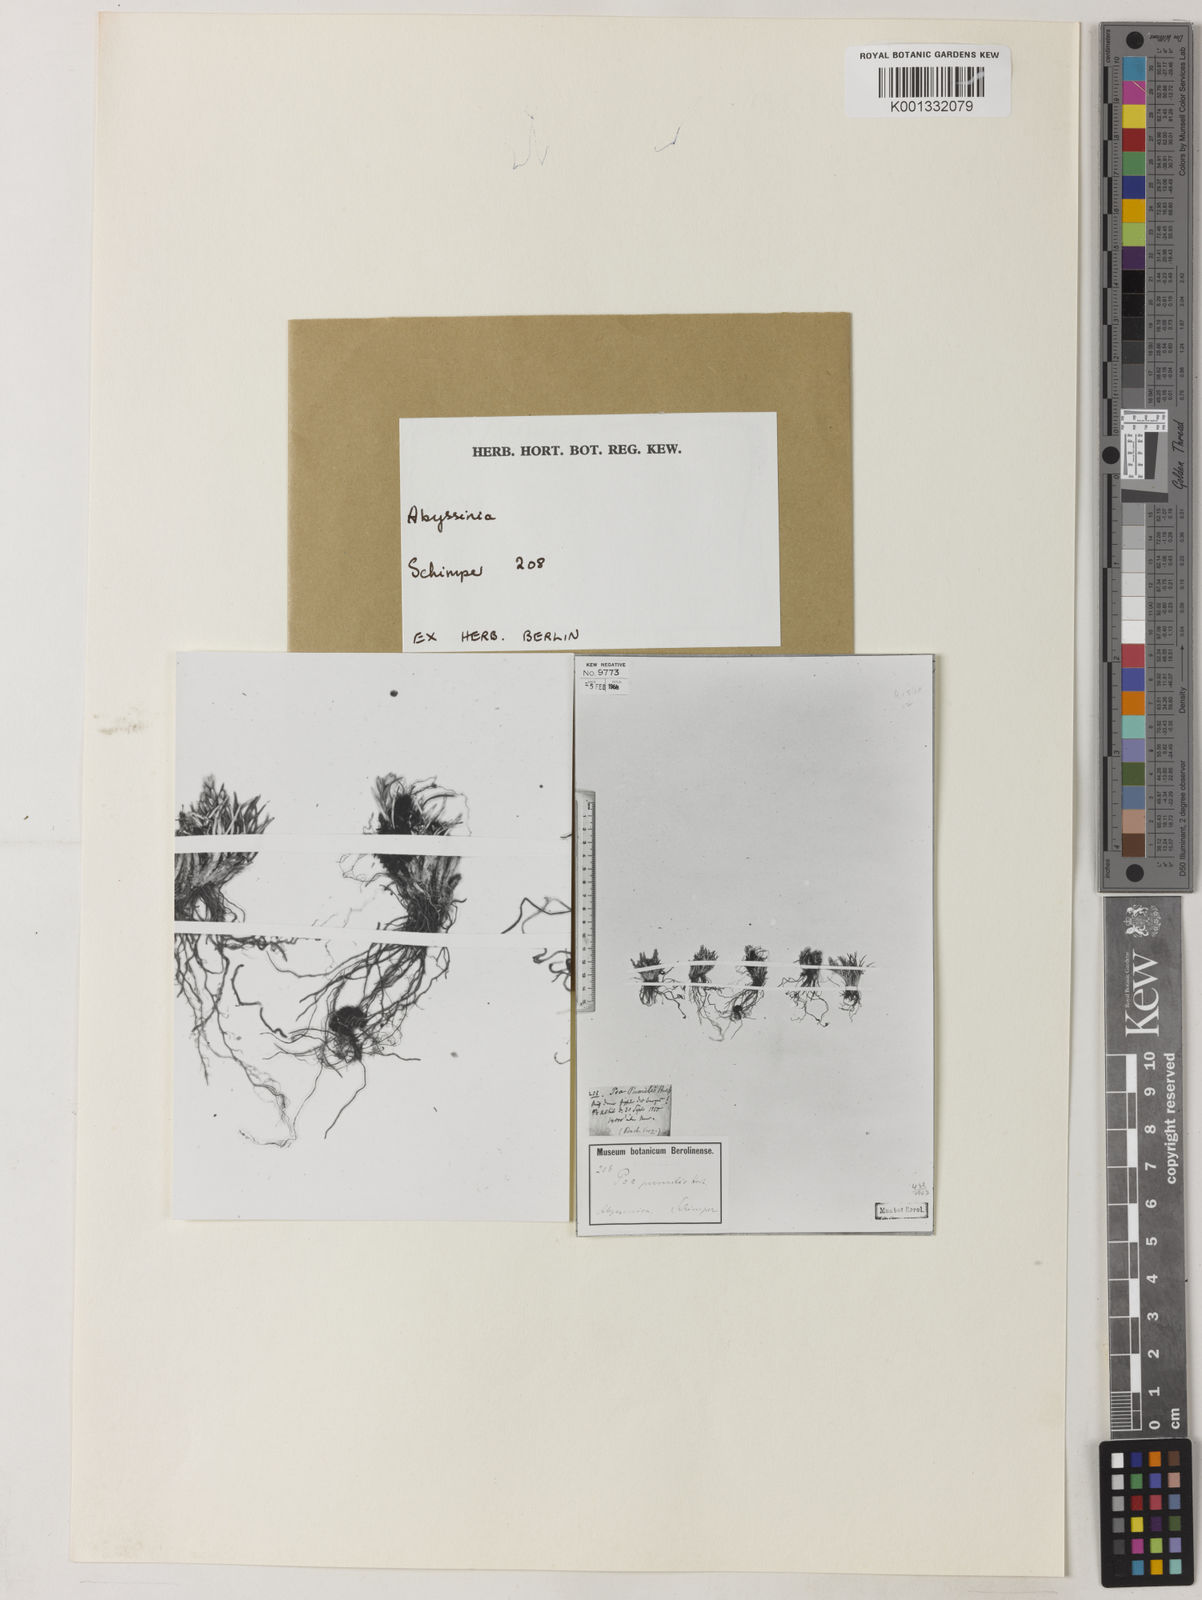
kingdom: Plantae
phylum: Tracheophyta
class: Liliopsida
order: Poales
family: Poaceae
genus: Poa
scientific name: Poa pumilio
